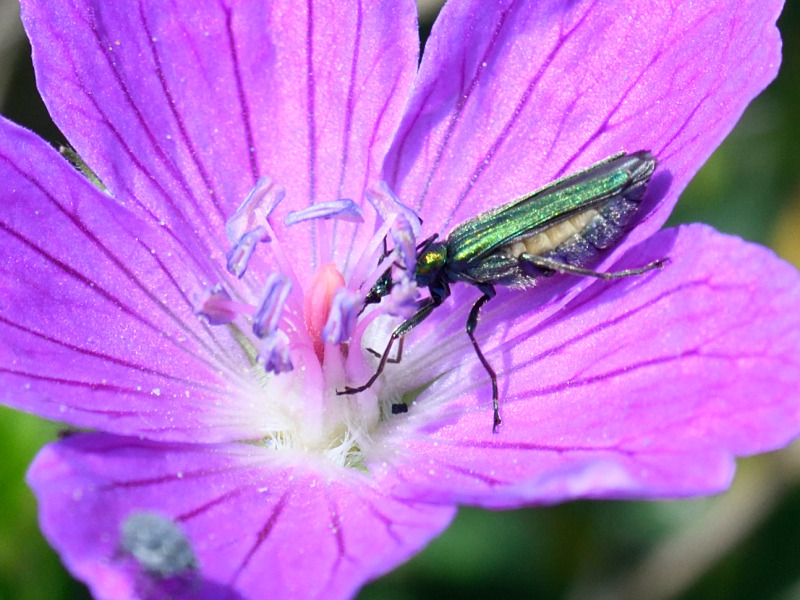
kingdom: Animalia
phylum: Arthropoda
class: Insecta
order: Coleoptera
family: Oedemeridae
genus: Oedemera
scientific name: Oedemera nobilis
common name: Tyklårssolbille
